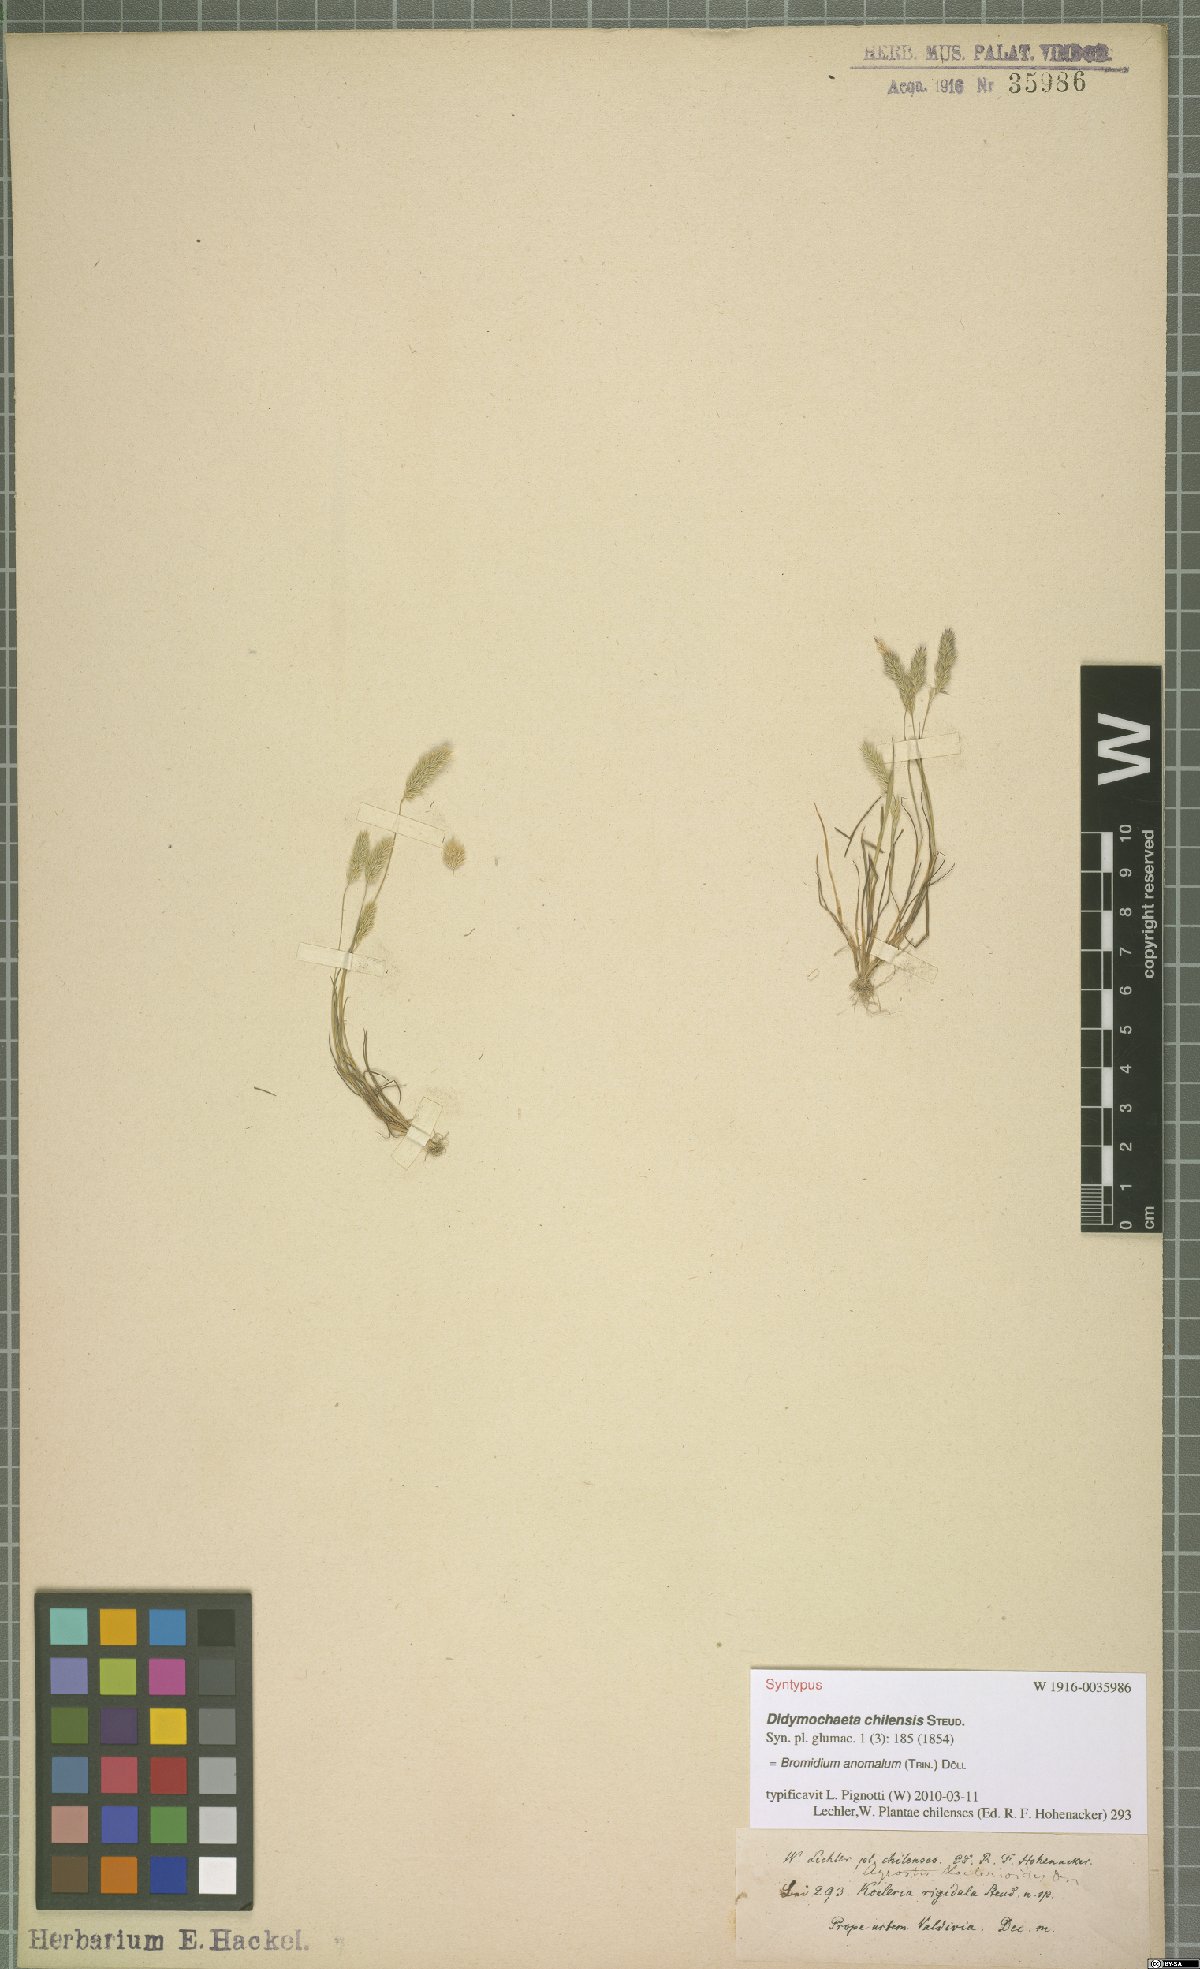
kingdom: Plantae
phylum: Tracheophyta
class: Liliopsida
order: Poales
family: Poaceae
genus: Agrostis
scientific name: Agrostis koelerioides
